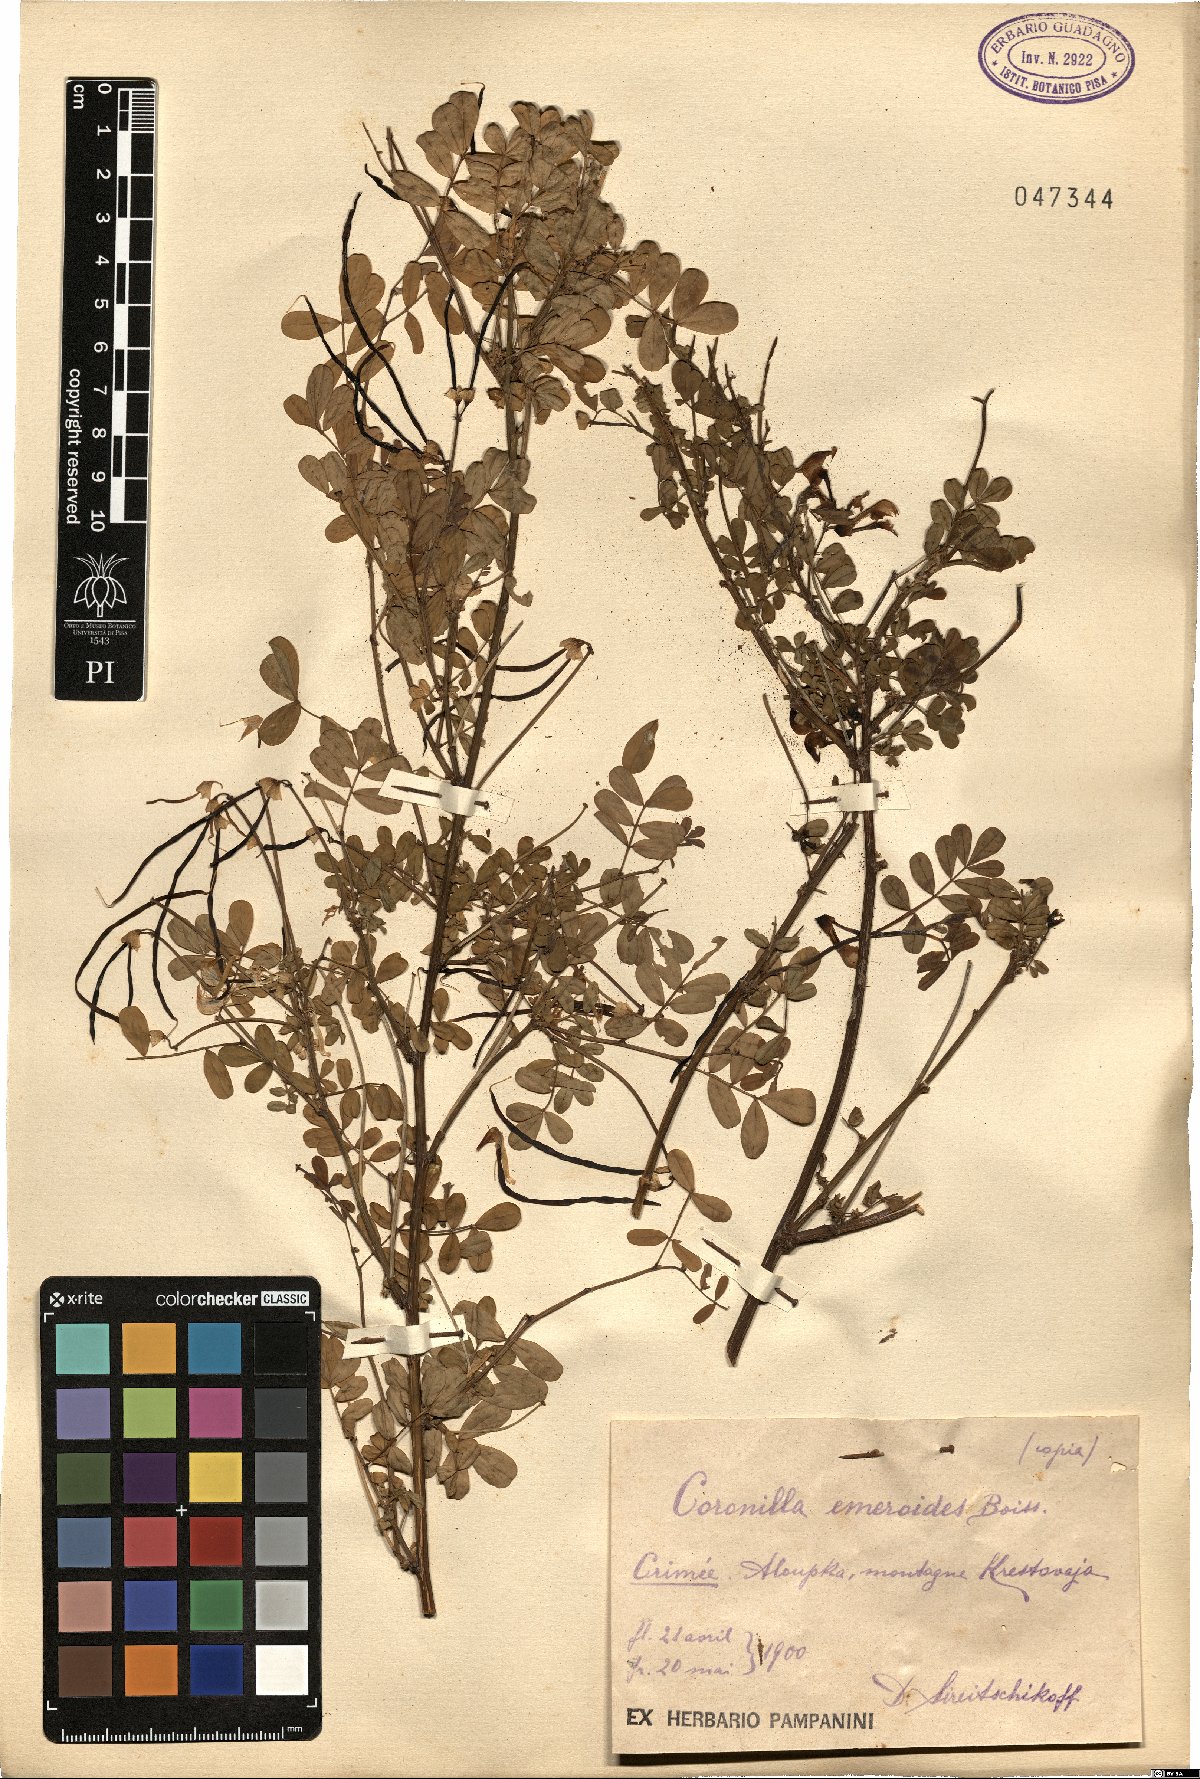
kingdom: Plantae
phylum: Tracheophyta
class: Magnoliopsida
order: Fabales
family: Fabaceae
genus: Hippocrepis
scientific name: Hippocrepis emerus
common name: Scorpion senna
